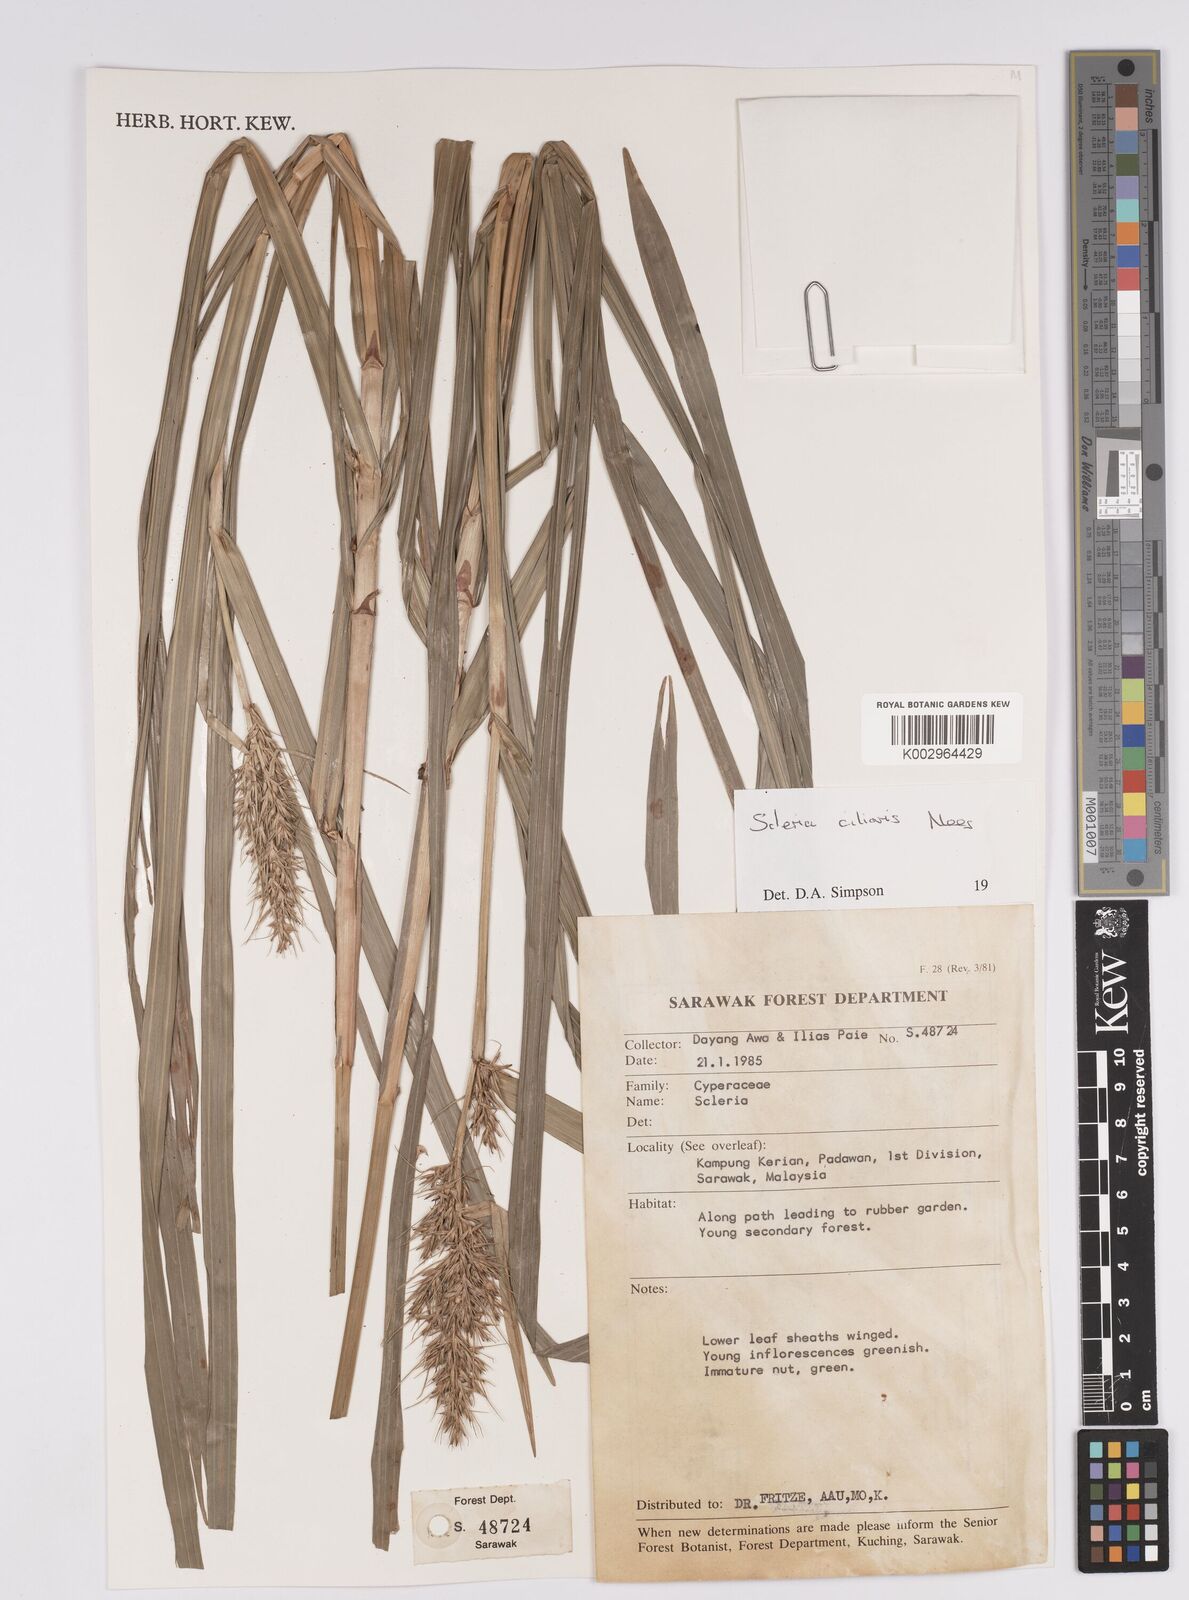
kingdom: Plantae
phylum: Tracheophyta
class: Liliopsida
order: Poales
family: Cyperaceae
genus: Scleria
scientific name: Scleria ciliaris
